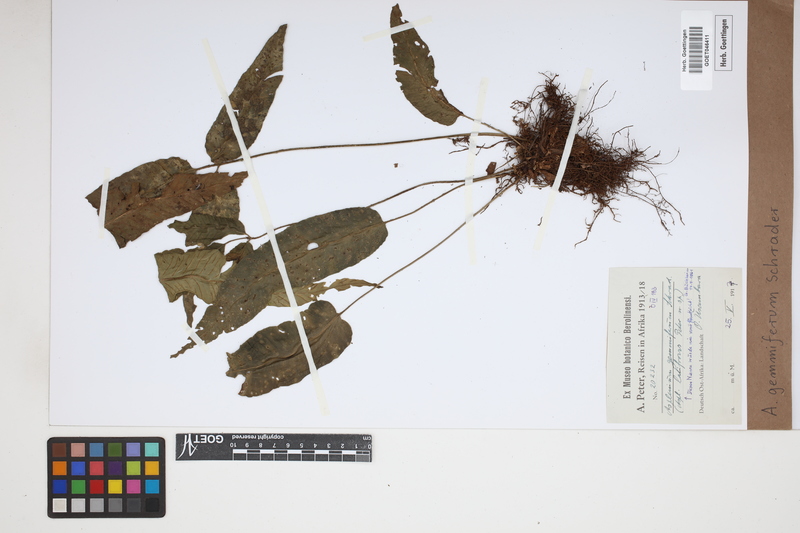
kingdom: Plantae
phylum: Tracheophyta
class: Polypodiopsida
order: Polypodiales
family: Aspleniaceae
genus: Asplenium
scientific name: Asplenium gemmiferum
